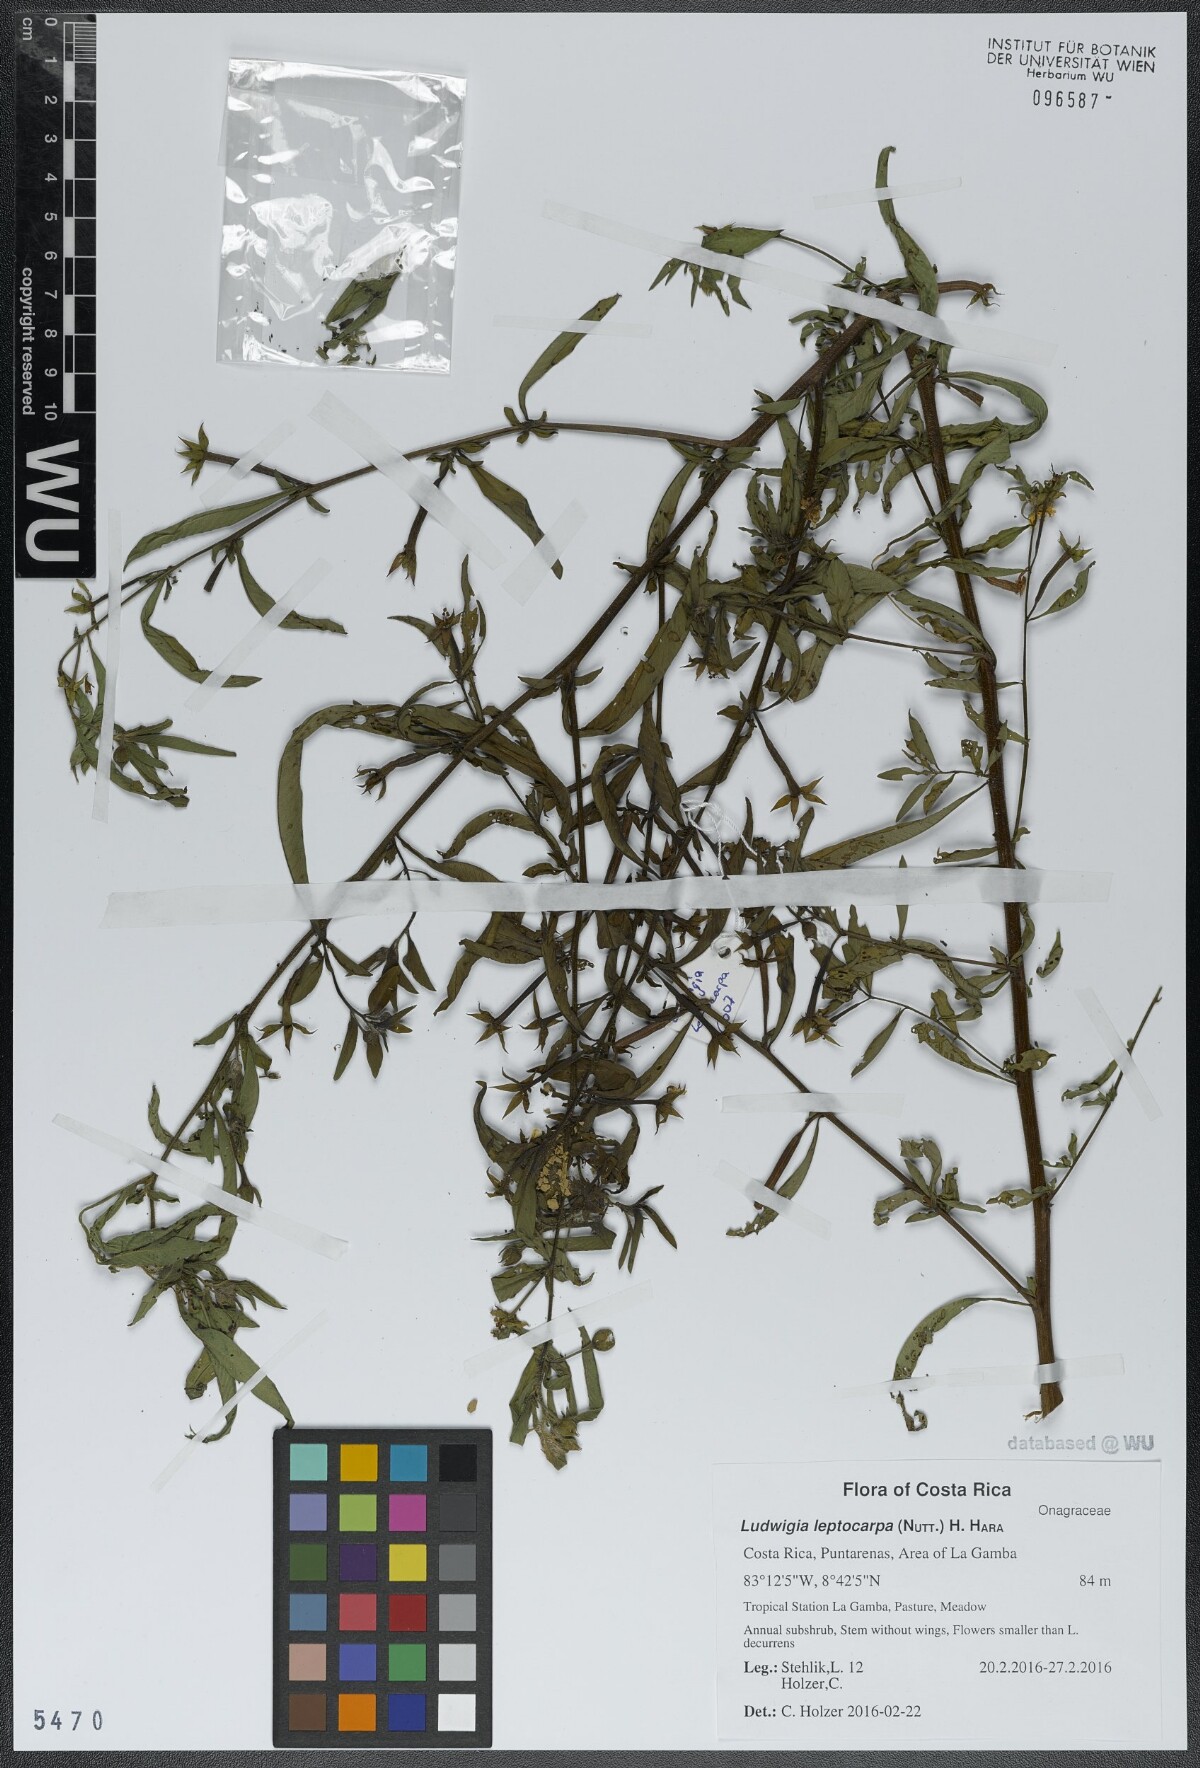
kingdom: Plantae
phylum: Tracheophyta
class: Magnoliopsida
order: Myrtales
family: Onagraceae
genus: Ludwigia
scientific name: Ludwigia leptocarpa
